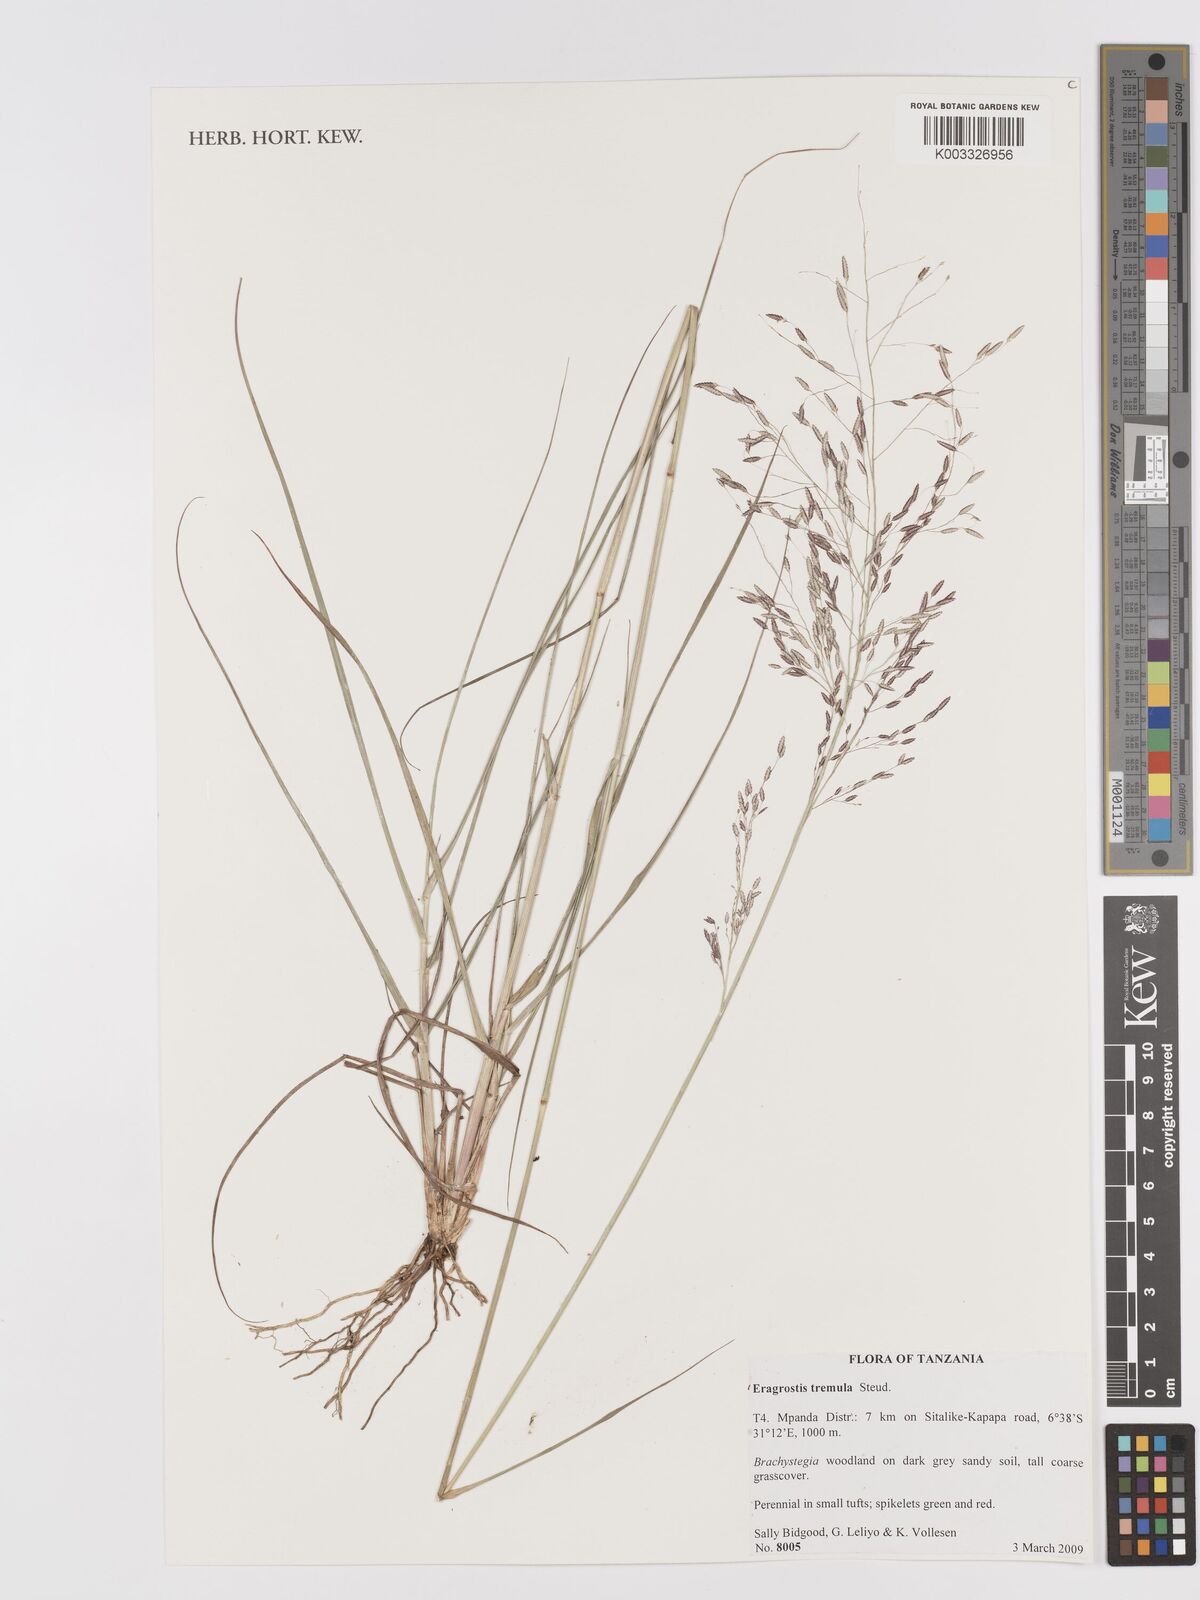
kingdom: Plantae
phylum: Tracheophyta
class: Liliopsida
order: Poales
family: Poaceae
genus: Eragrostis
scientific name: Eragrostis tremula
